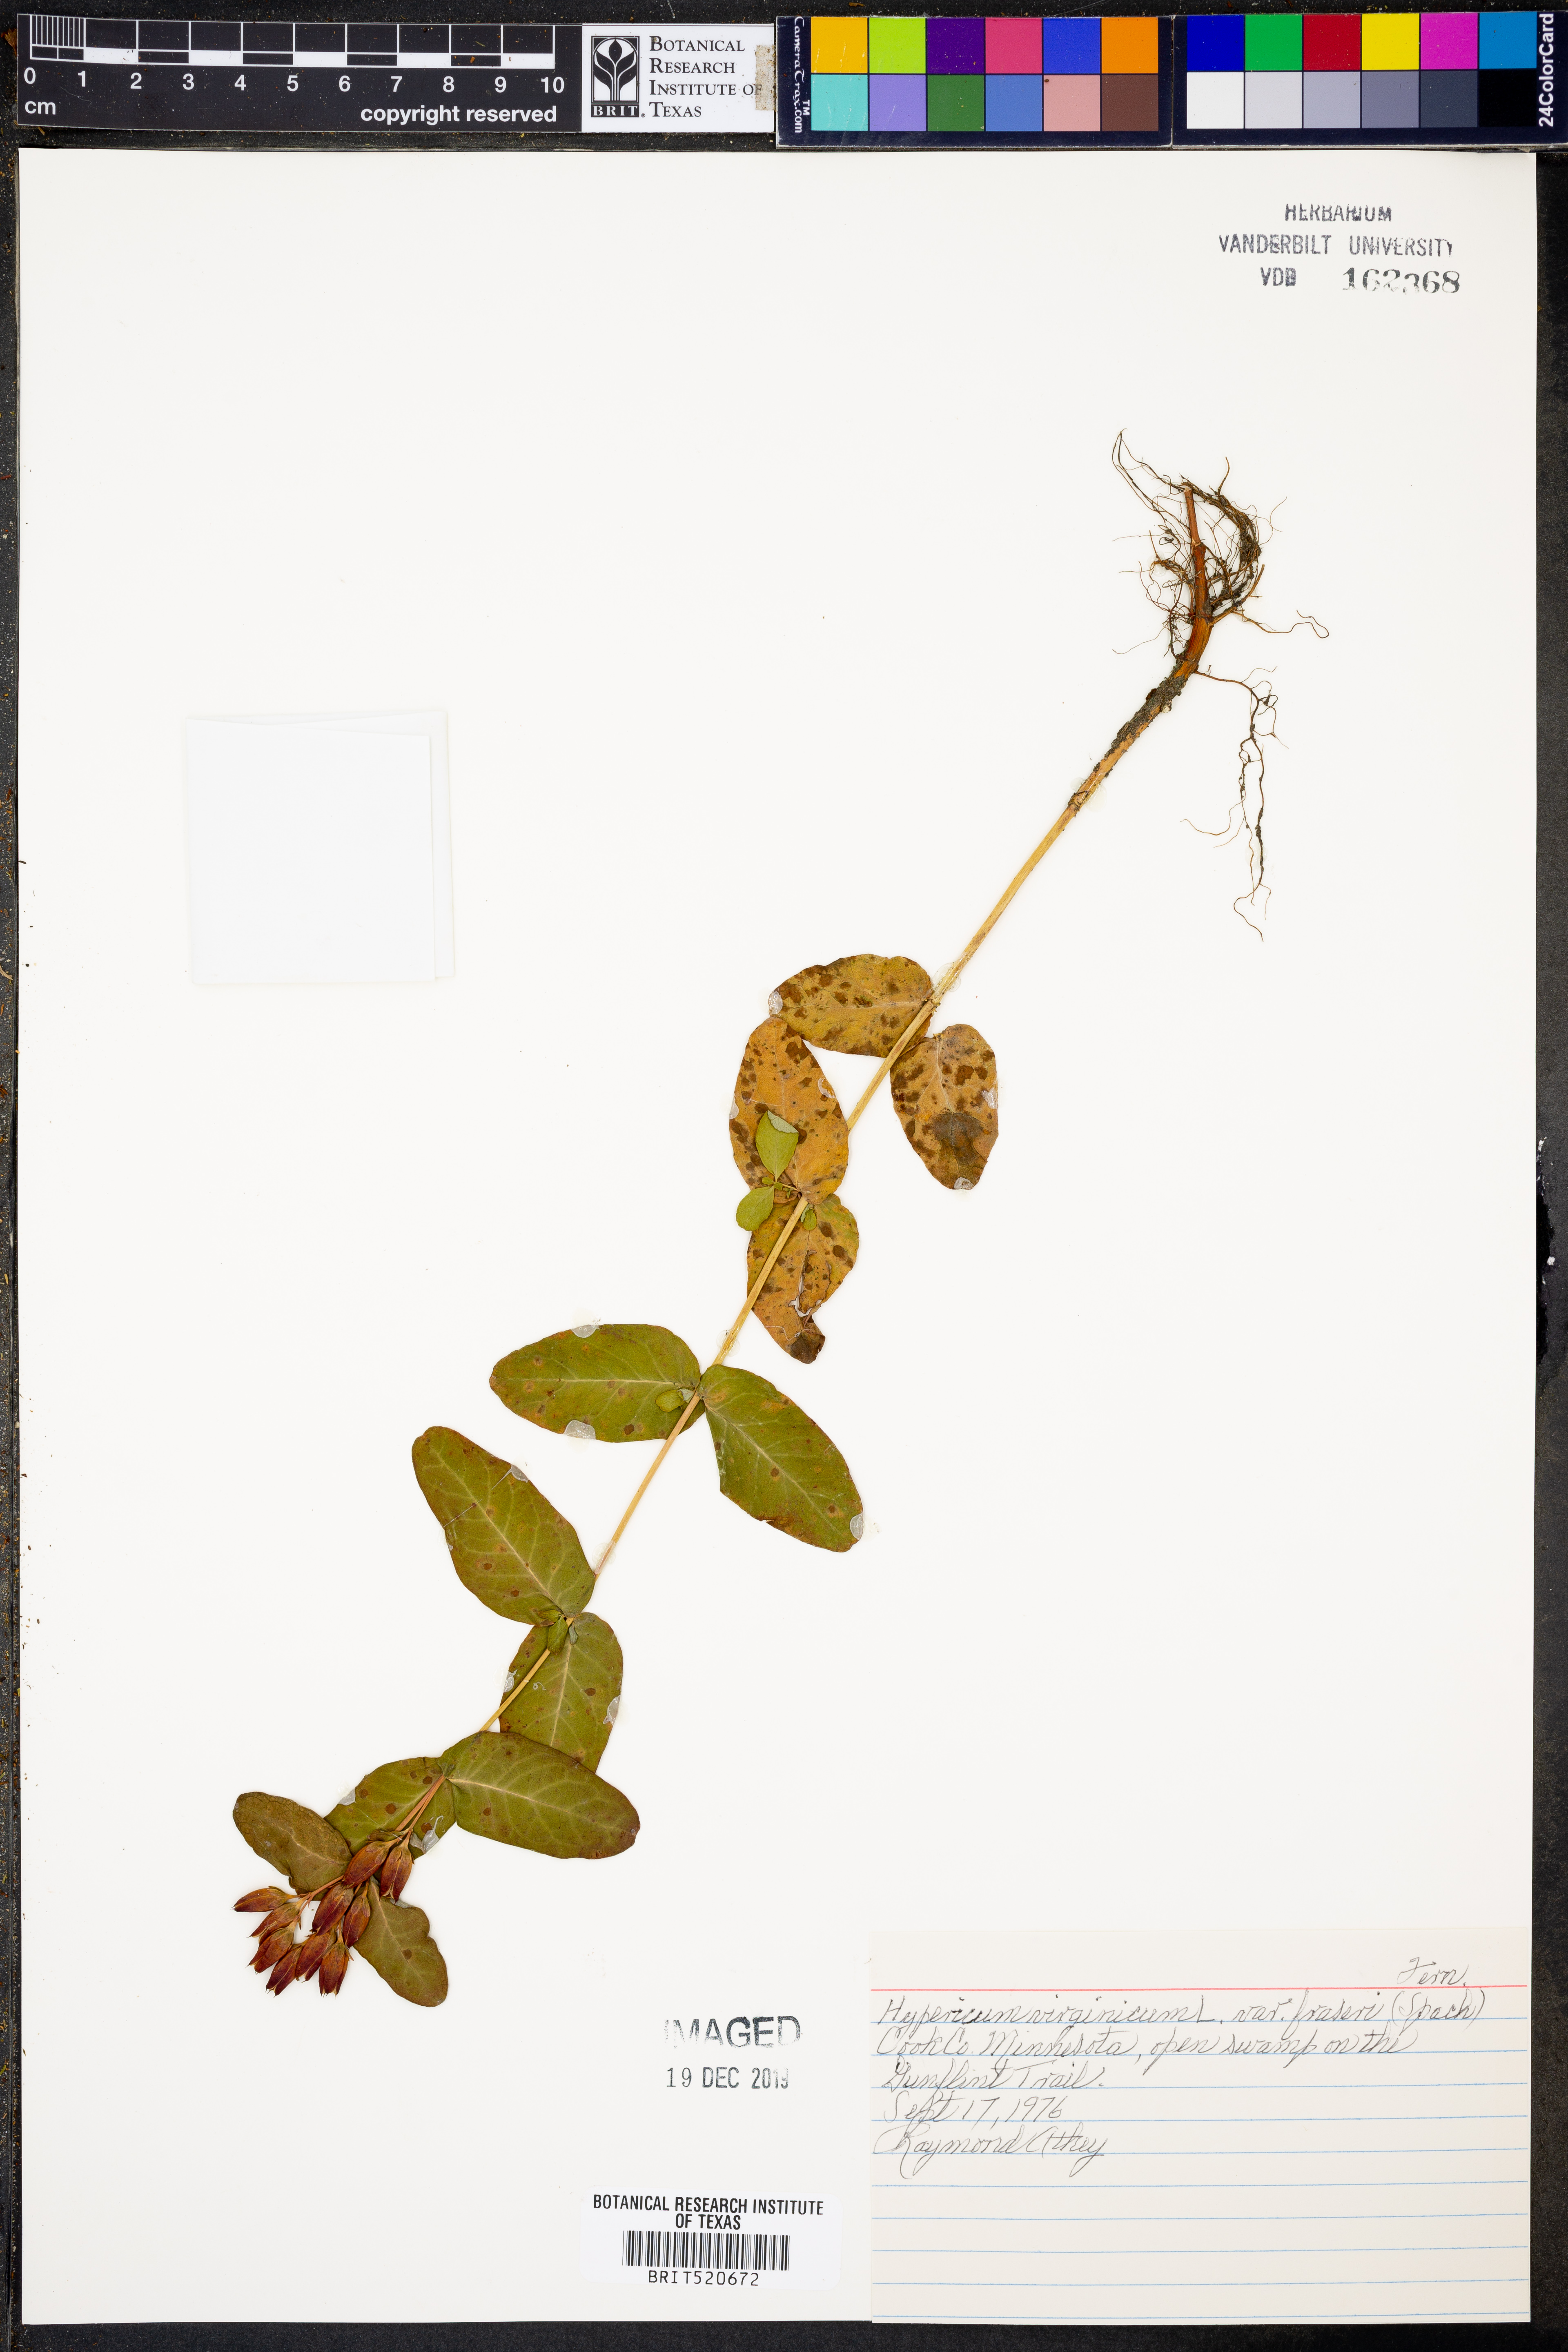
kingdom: Plantae
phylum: Tracheophyta
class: Magnoliopsida
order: Malpighiales
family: Hypericaceae
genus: Hypericum
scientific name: Hypericum virgatum
